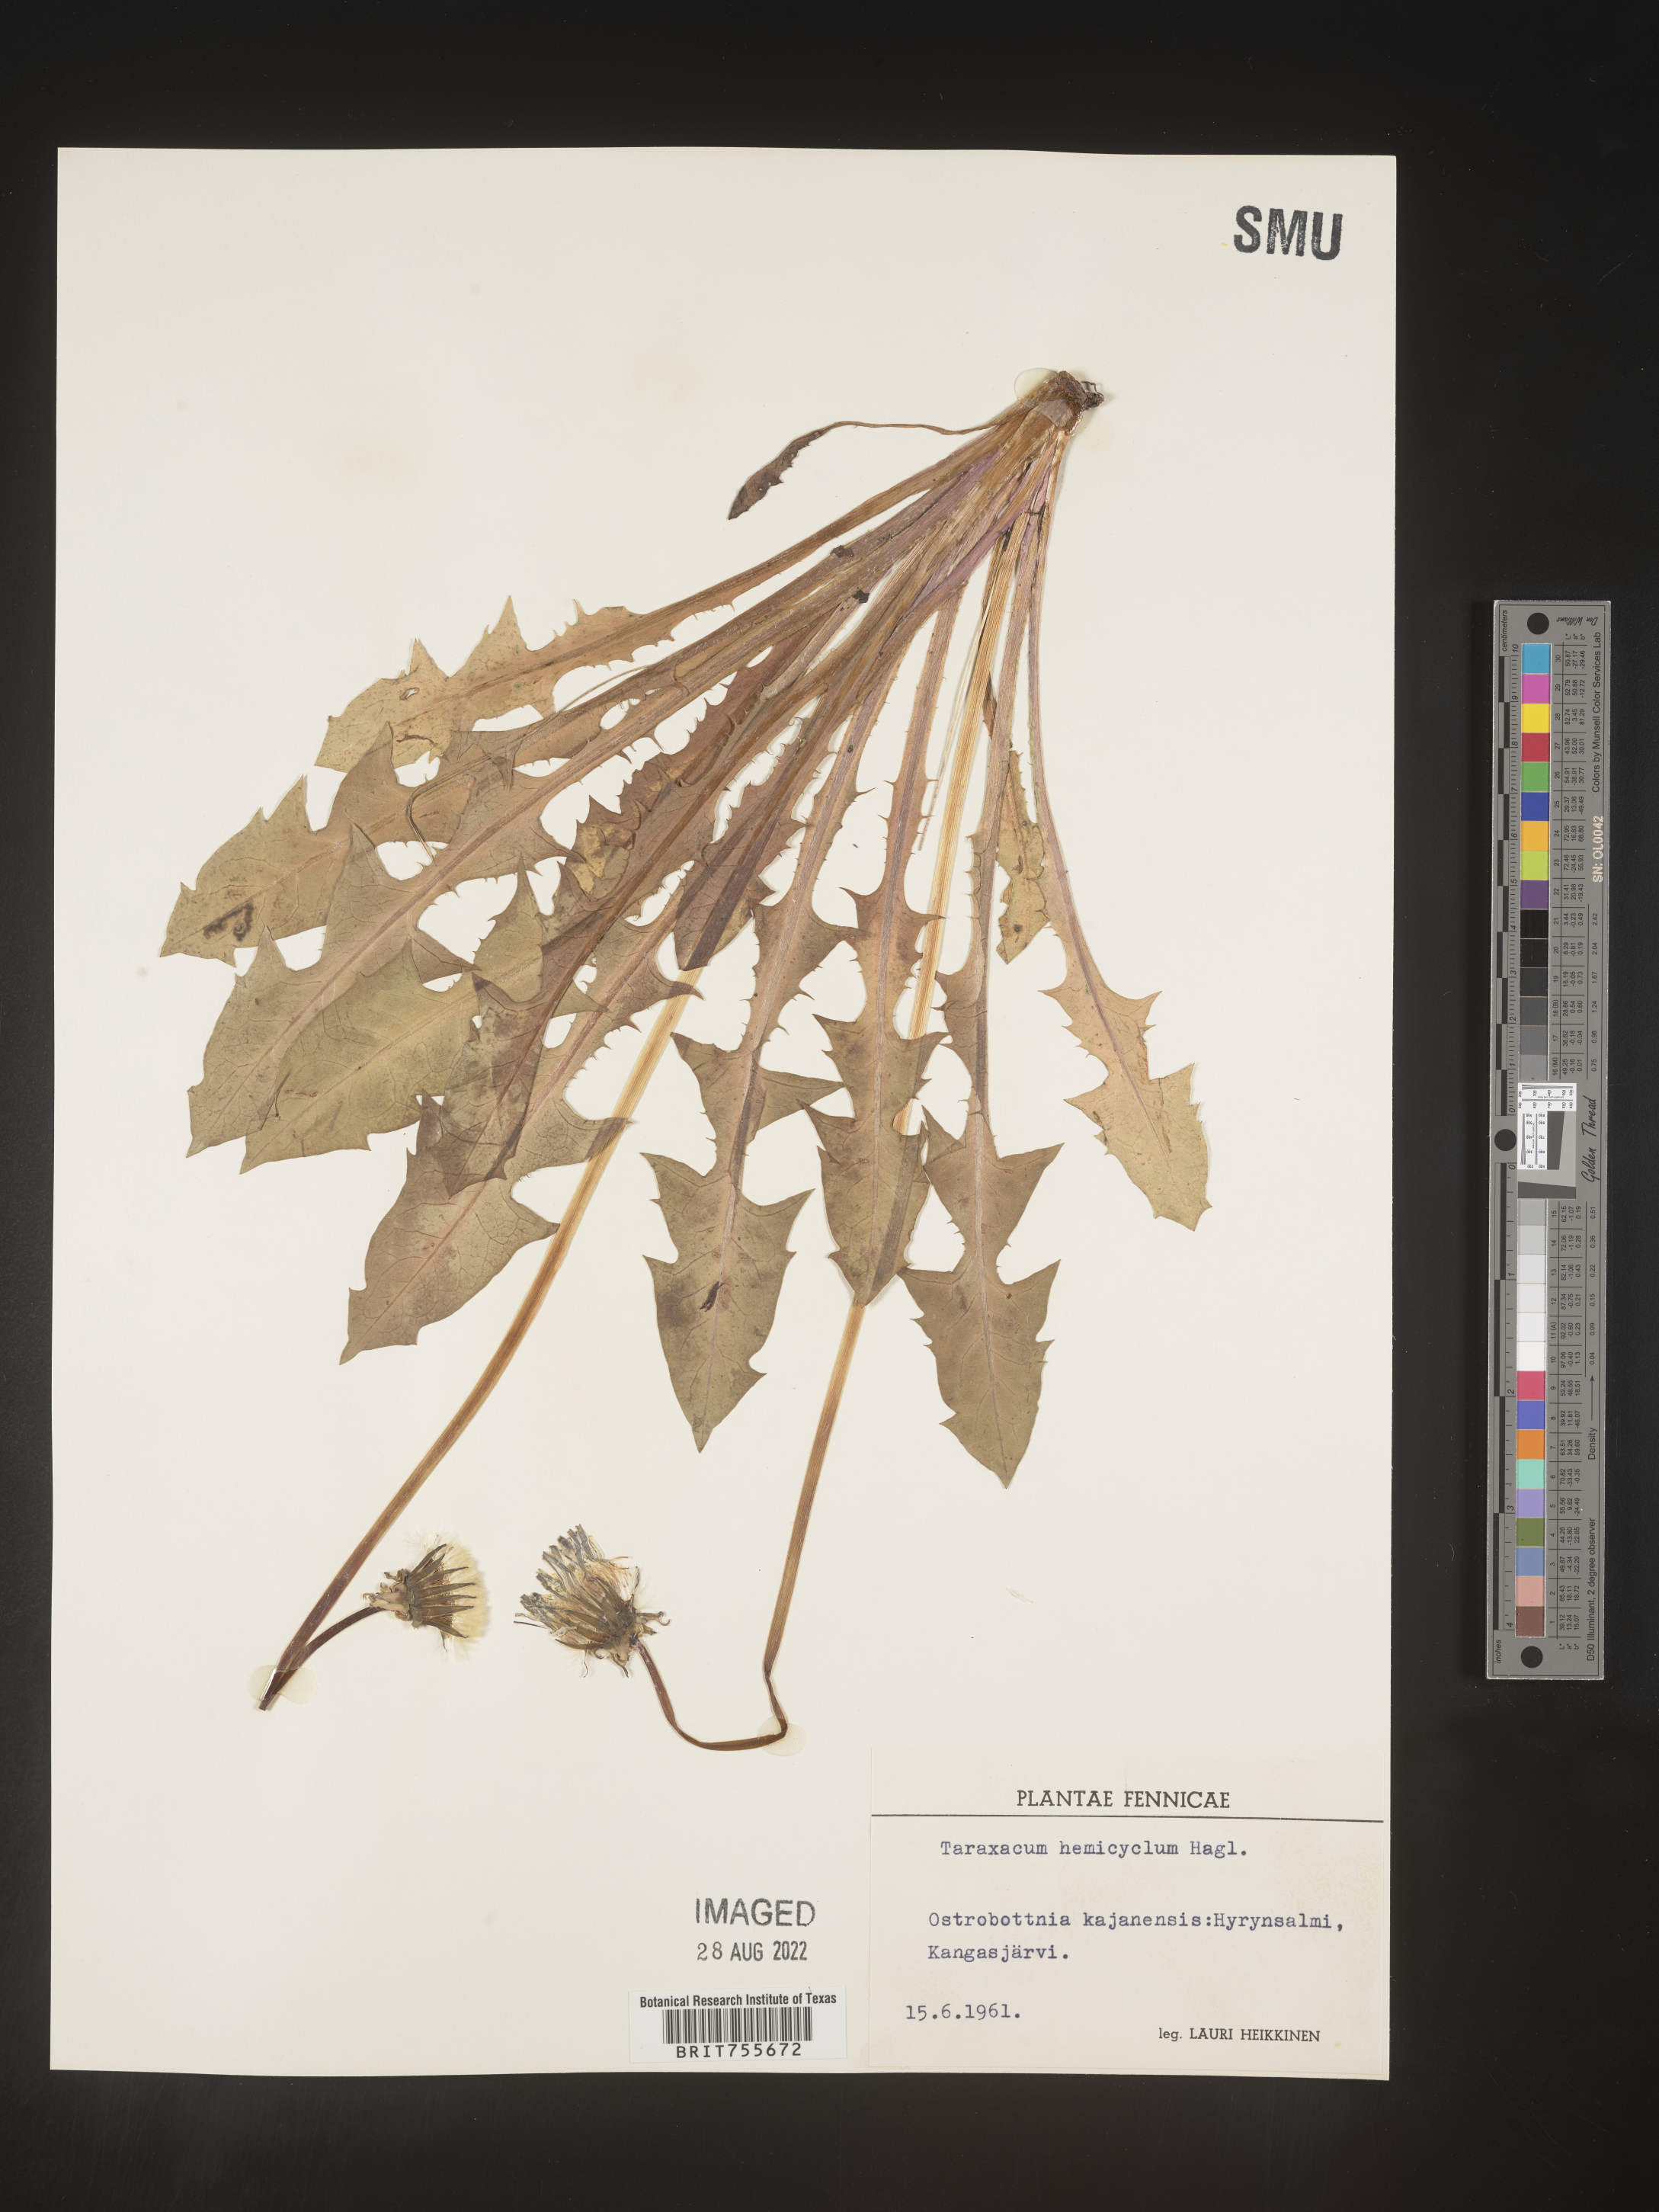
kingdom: Plantae
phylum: Tracheophyta
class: Magnoliopsida
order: Asterales
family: Asteraceae
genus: Taraxacum
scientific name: Taraxacum
